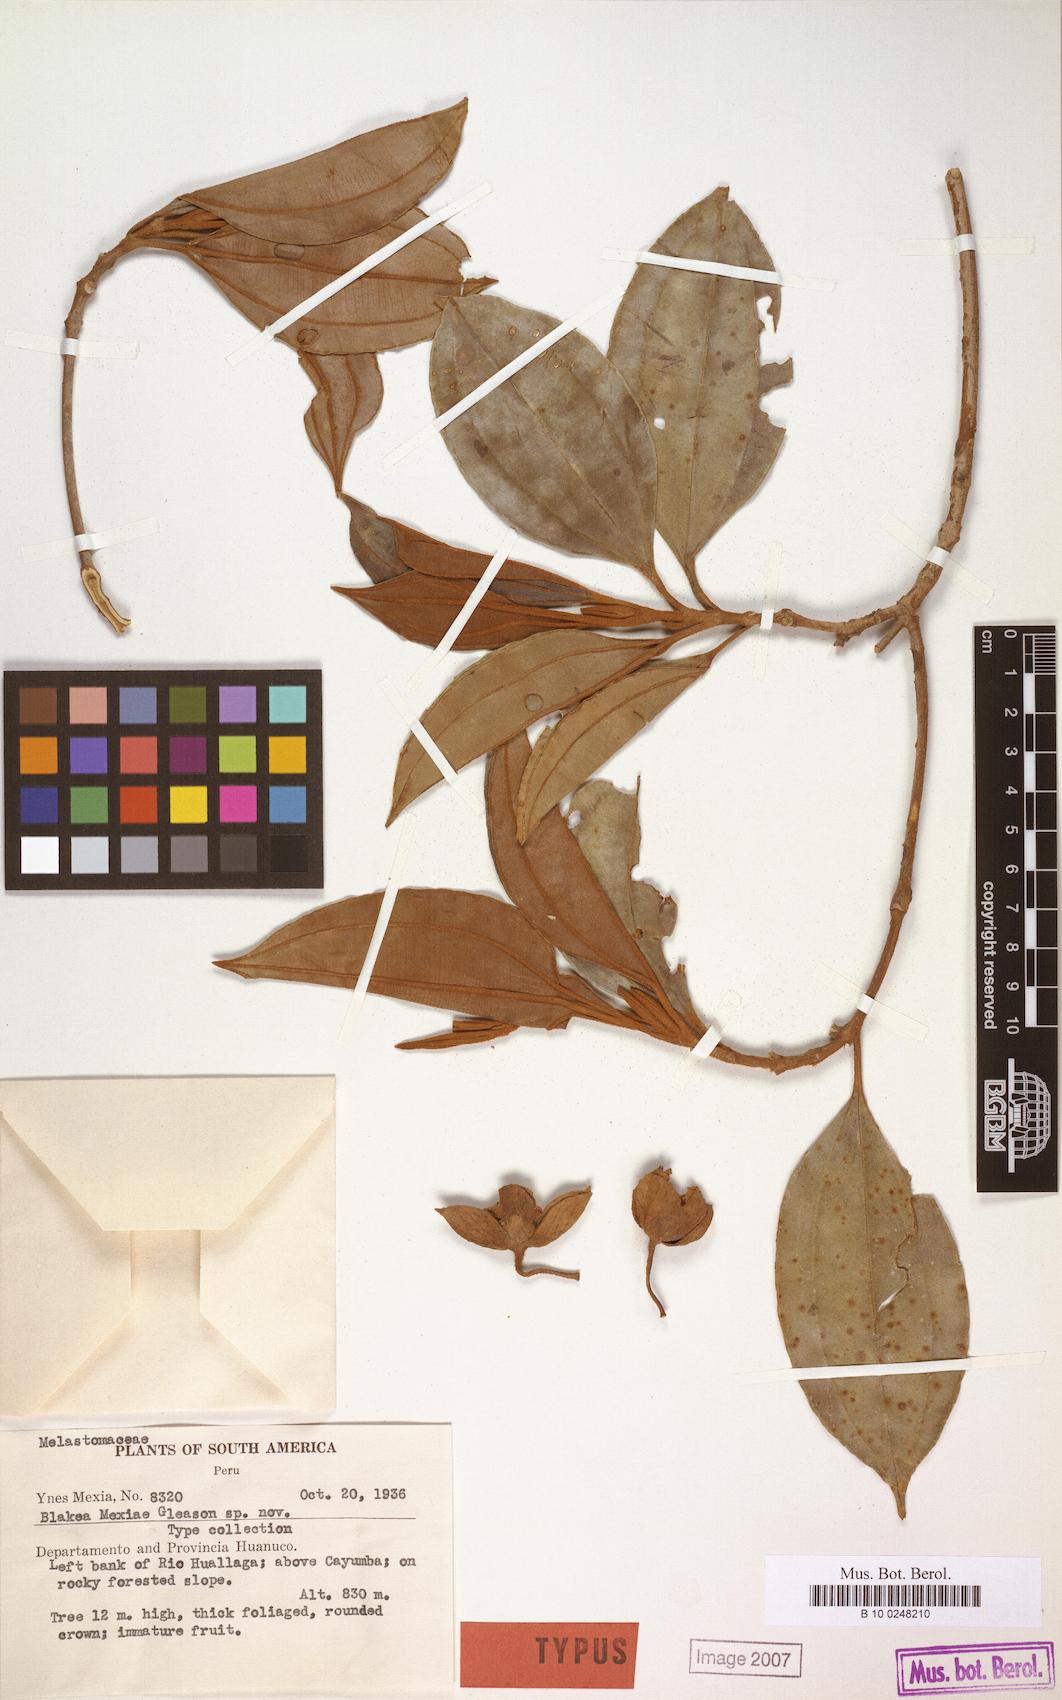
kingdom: Plantae
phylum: Tracheophyta
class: Magnoliopsida
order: Myrtales
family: Melastomataceae
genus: Blakea
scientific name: Blakea mexiae
